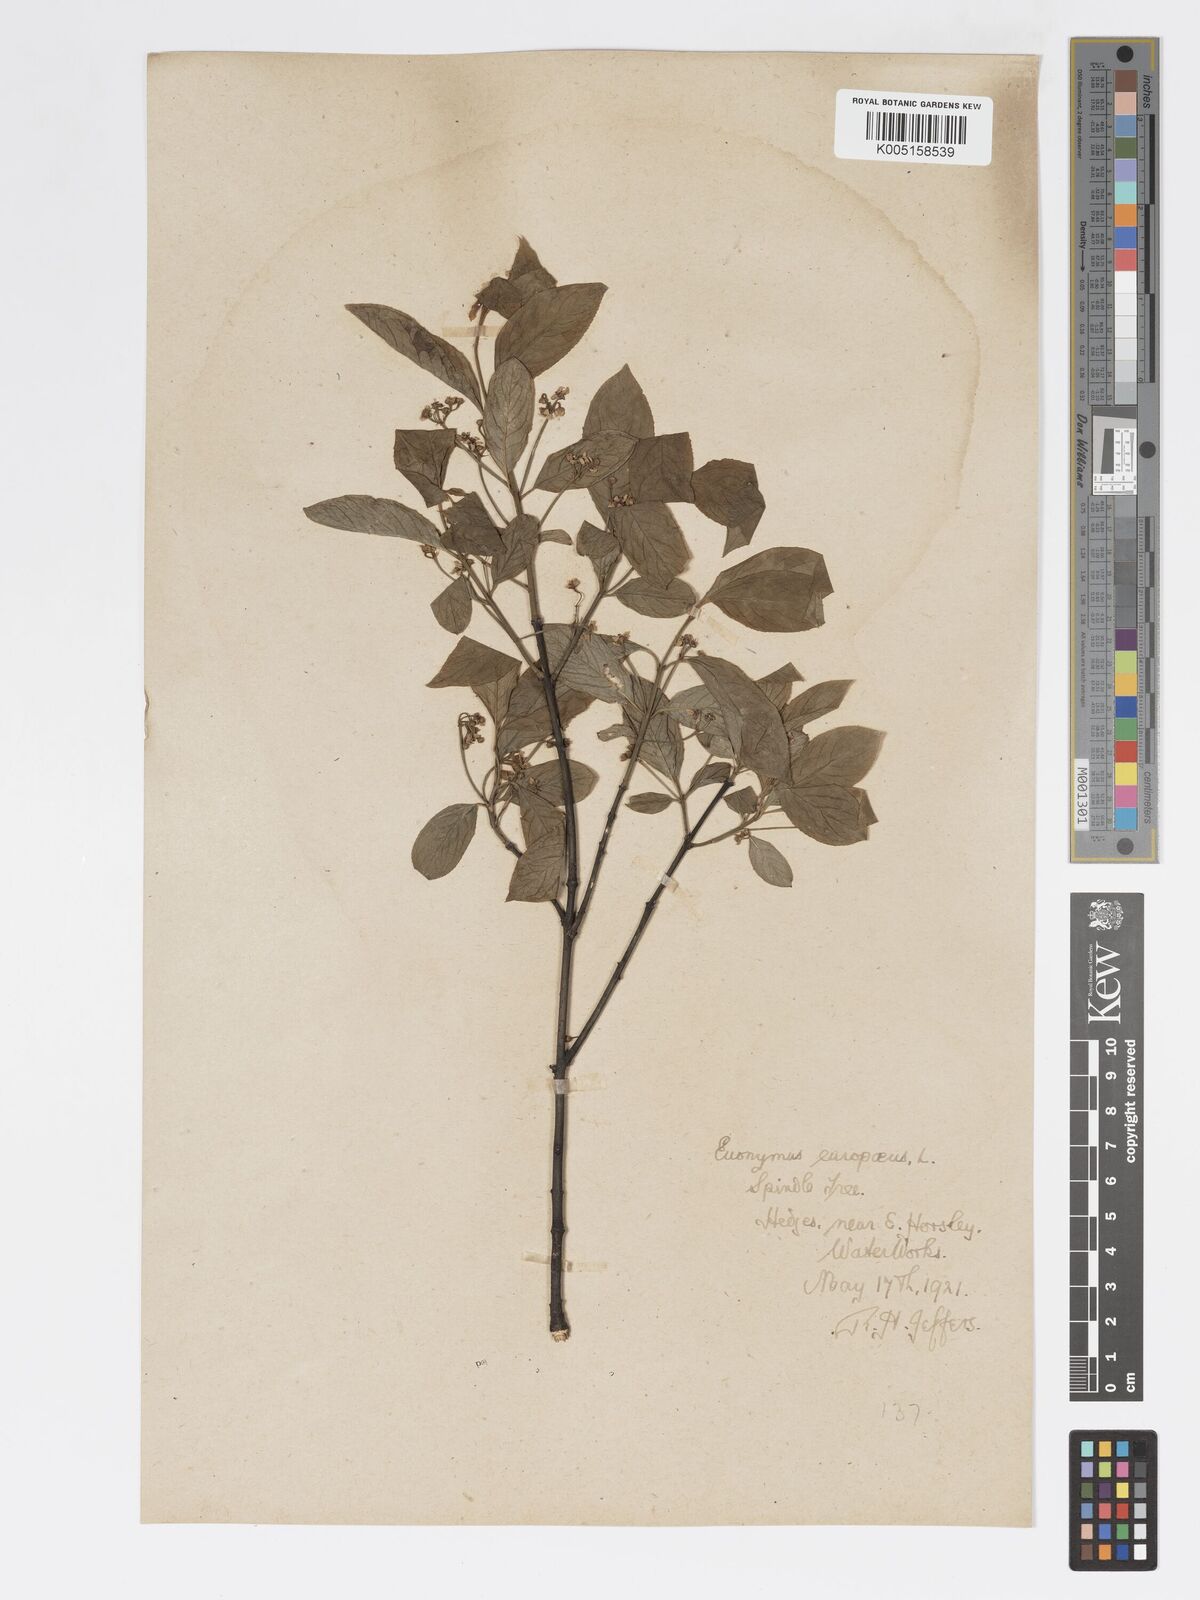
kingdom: Plantae
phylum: Tracheophyta
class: Magnoliopsida
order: Celastrales
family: Celastraceae
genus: Euonymus
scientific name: Euonymus
